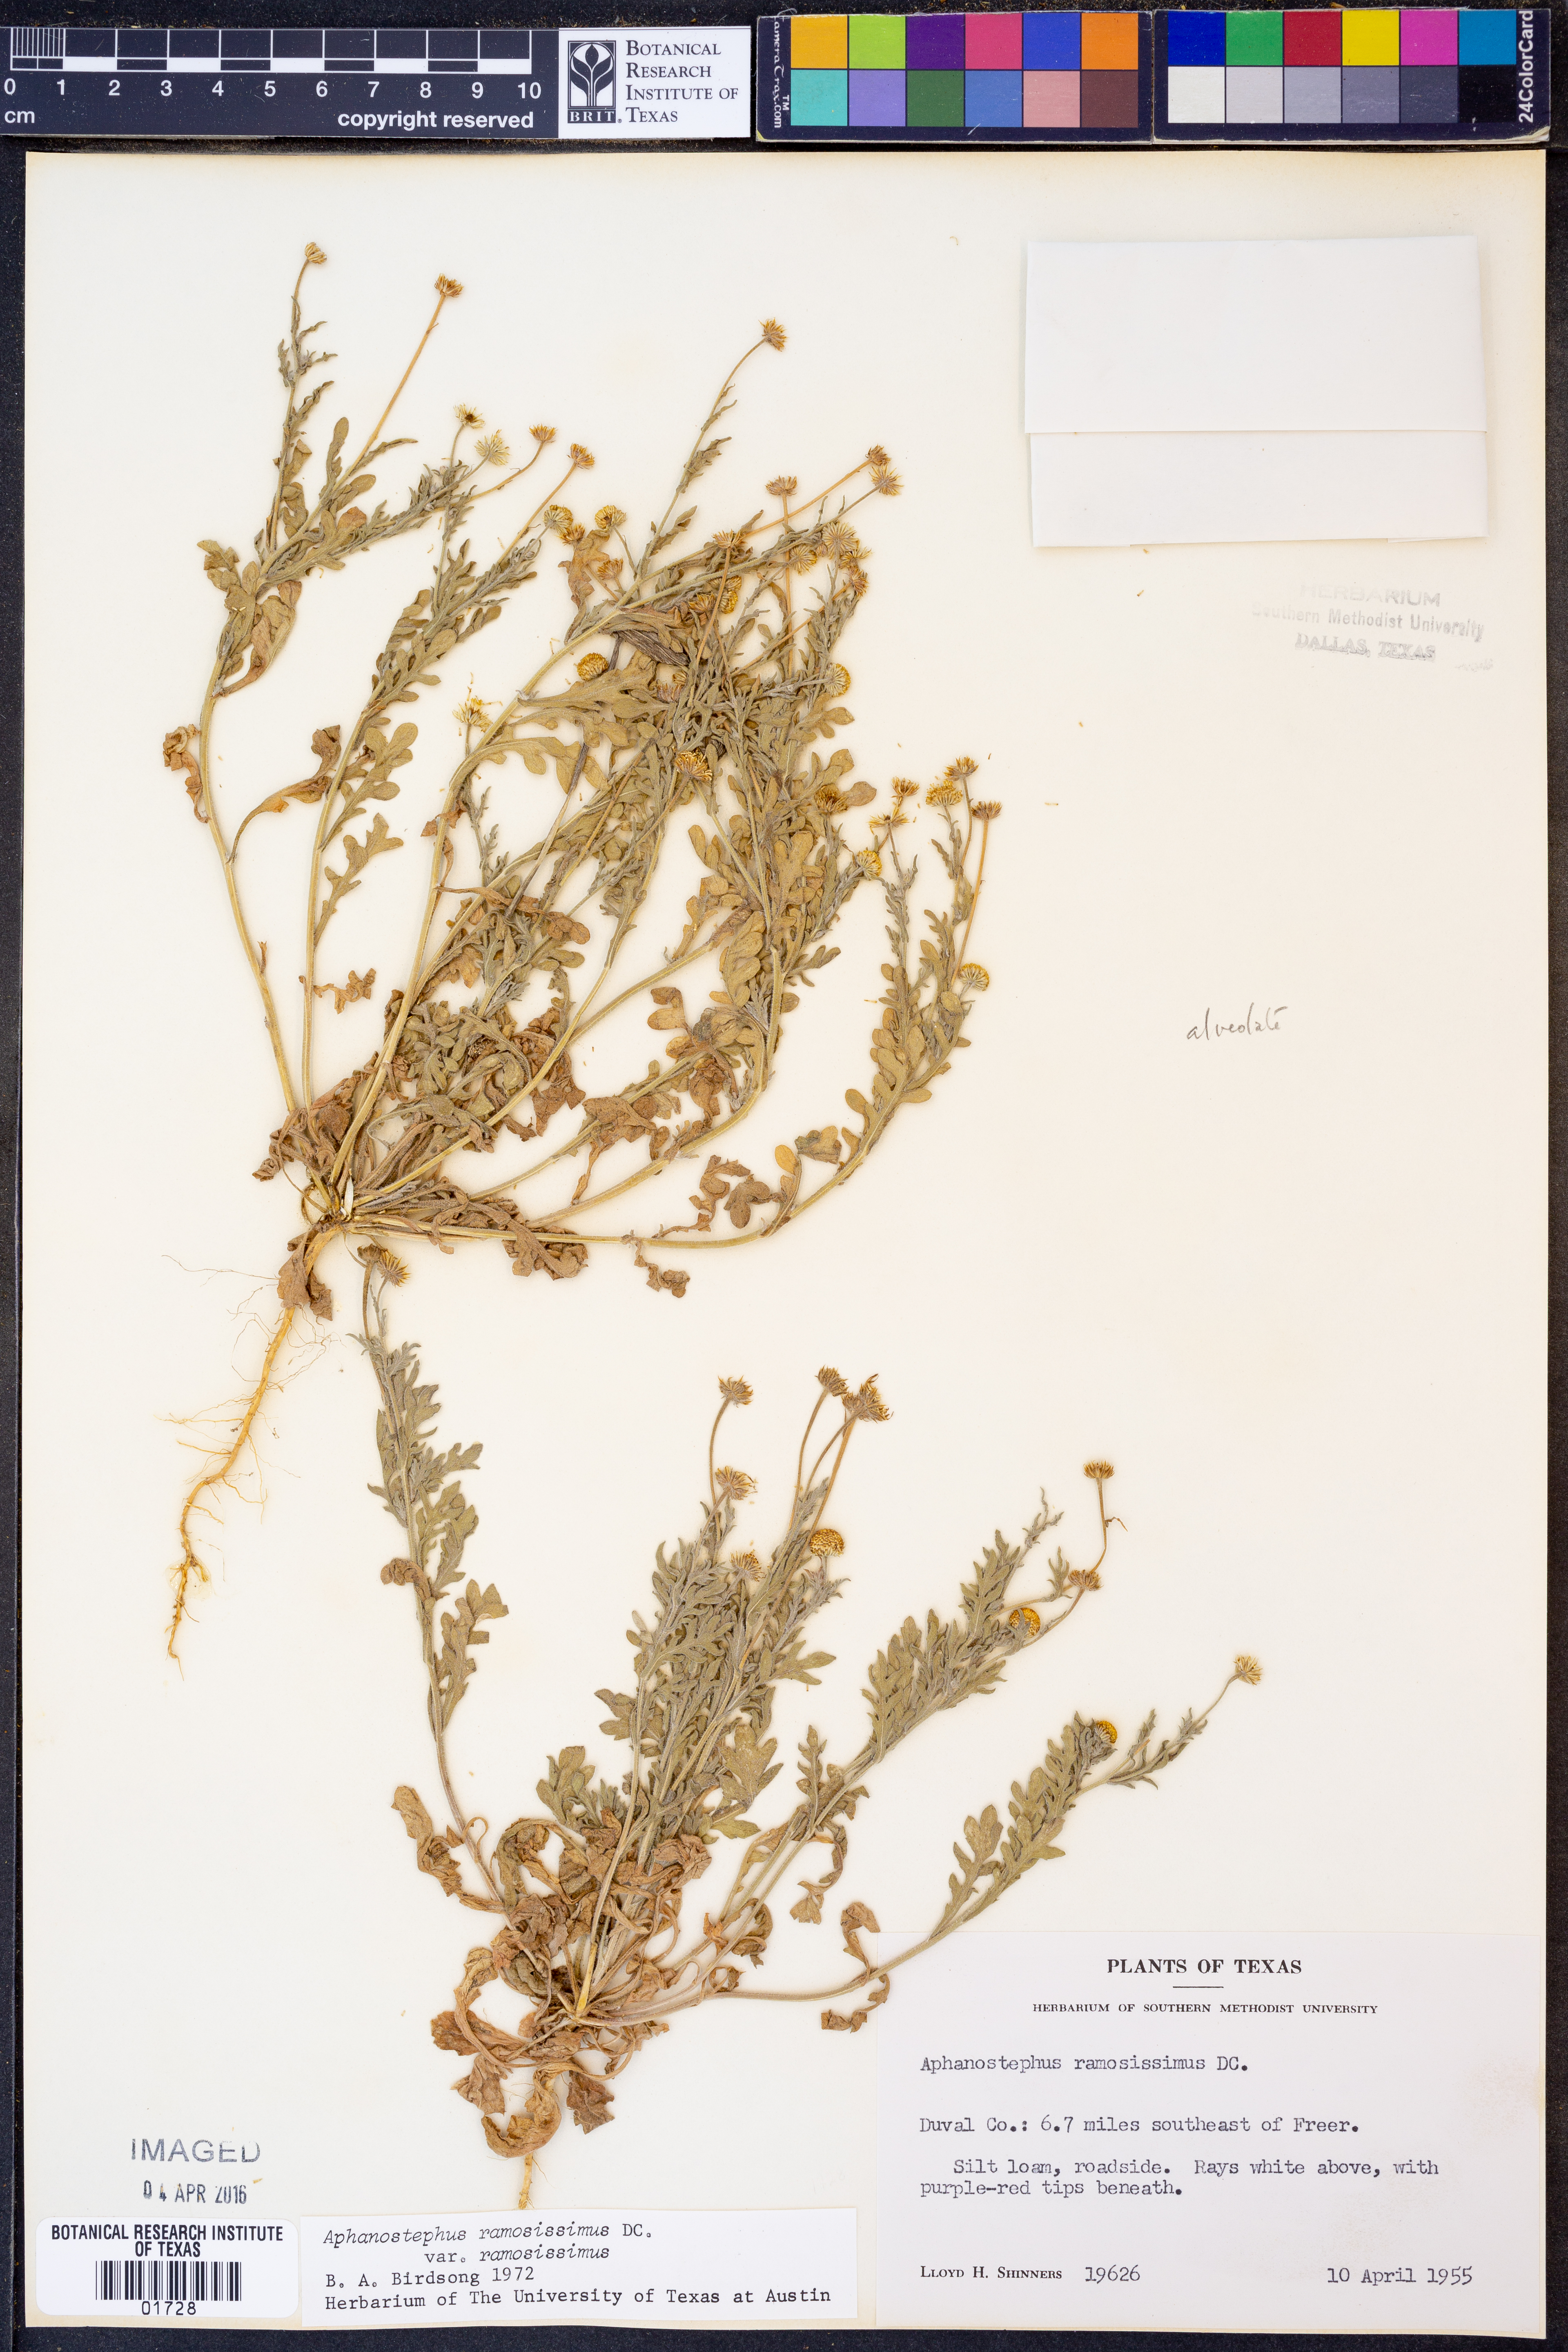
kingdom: Plantae
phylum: Tracheophyta
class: Magnoliopsida
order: Asterales
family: Asteraceae
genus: Aphanostephus
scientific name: Aphanostephus ramosissimus
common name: Plains lazy daisy
